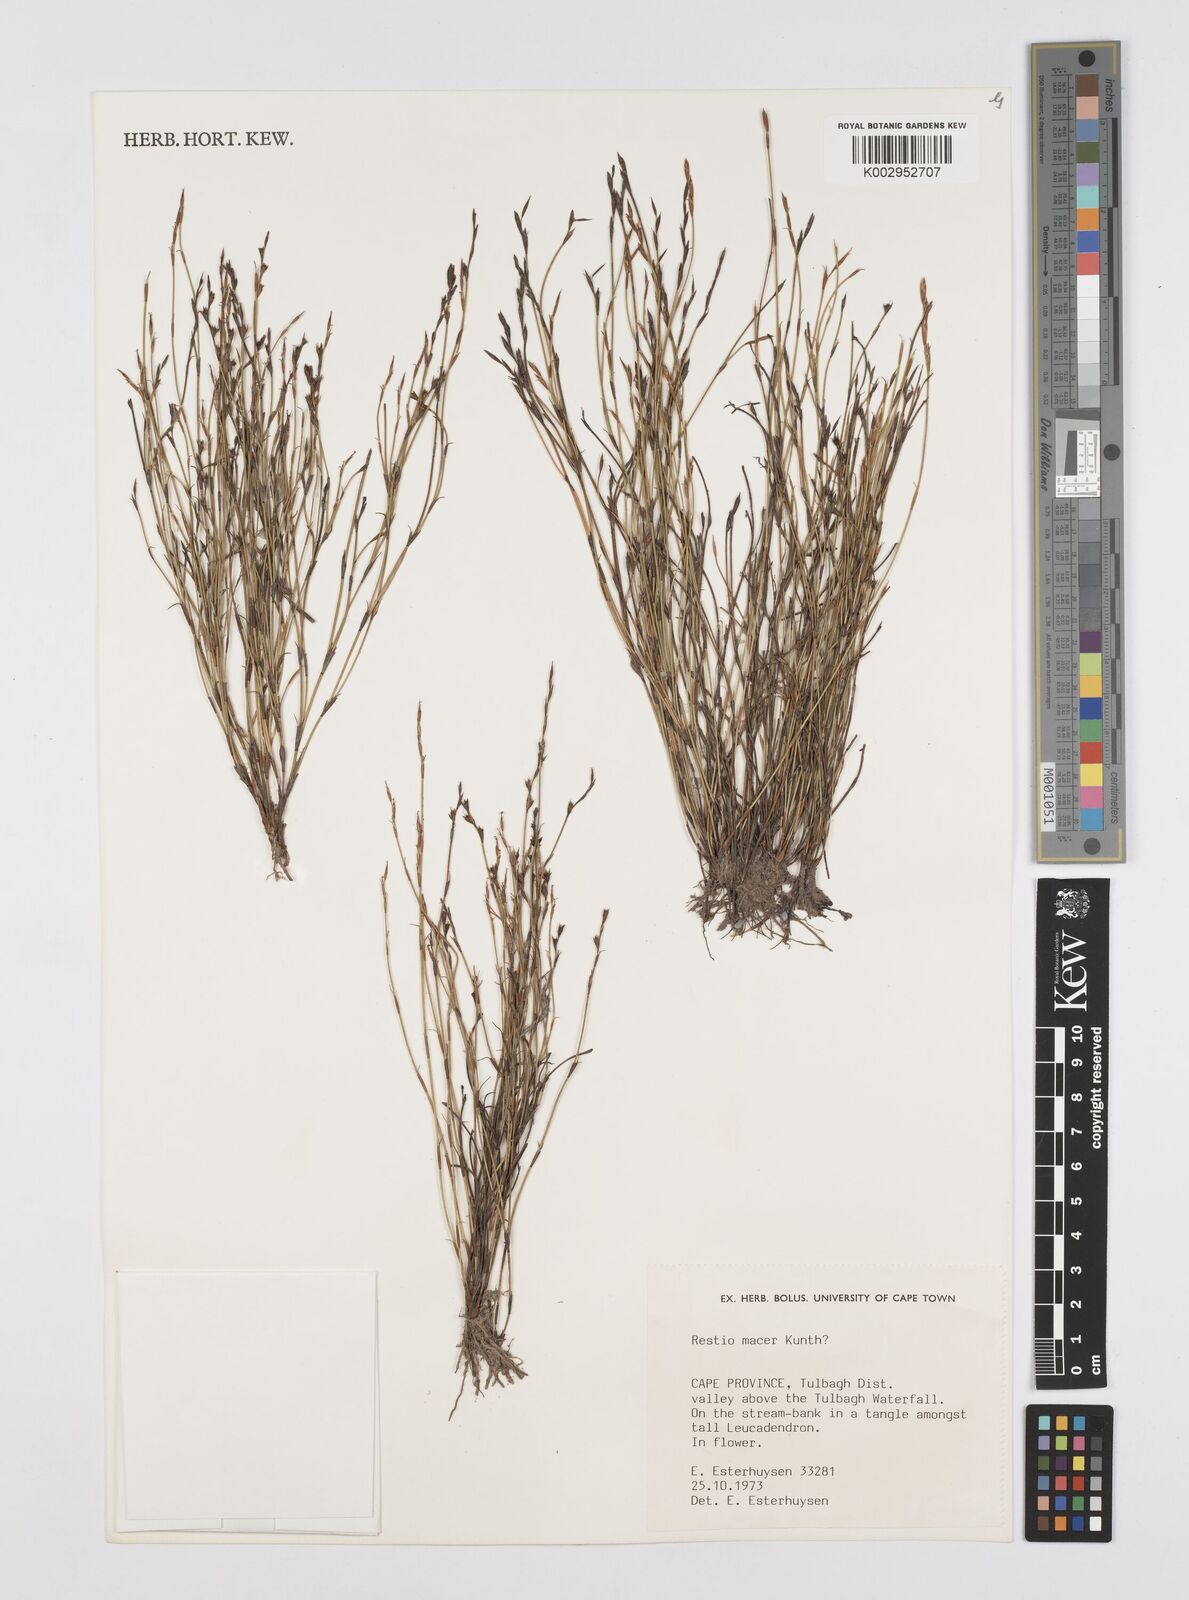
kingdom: Plantae
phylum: Tracheophyta
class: Liliopsida
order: Poales
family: Restionaceae
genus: Restio
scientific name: Restio macer
